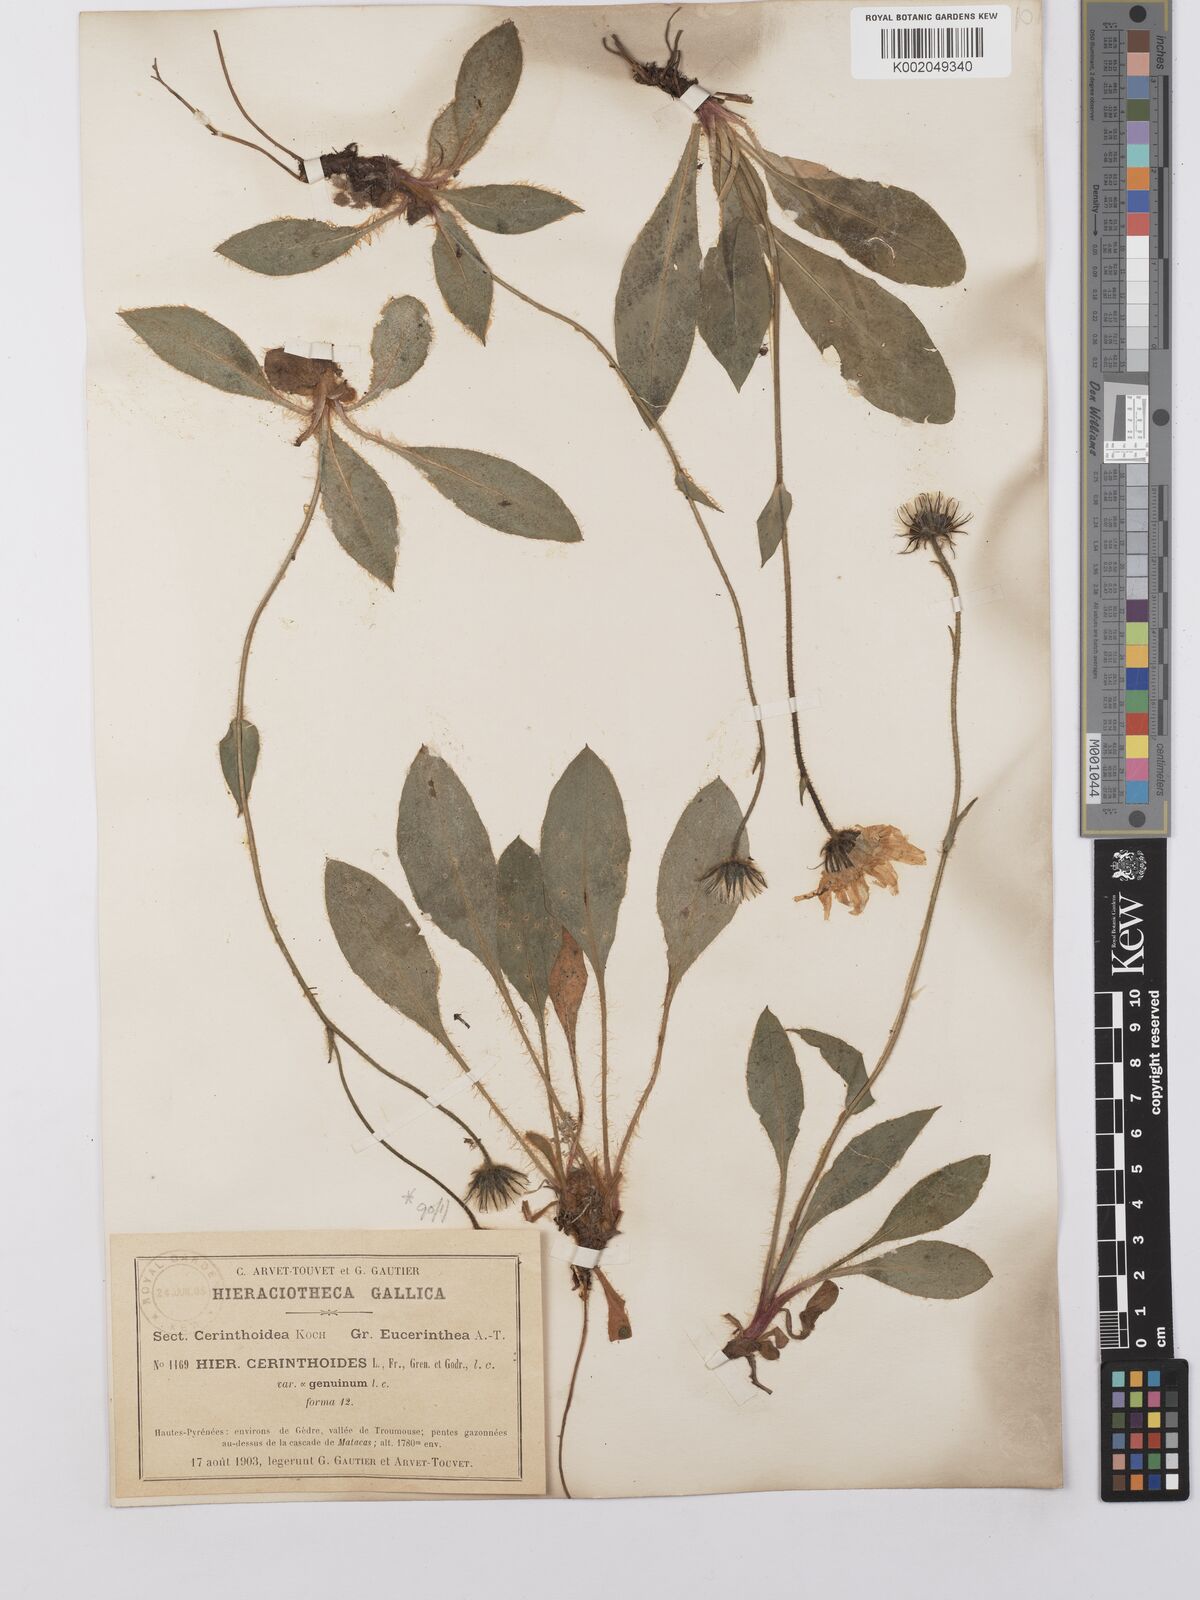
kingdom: Plantae
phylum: Tracheophyta
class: Magnoliopsida
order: Asterales
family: Asteraceae
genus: Hieracium
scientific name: Hieracium cerinthoides
